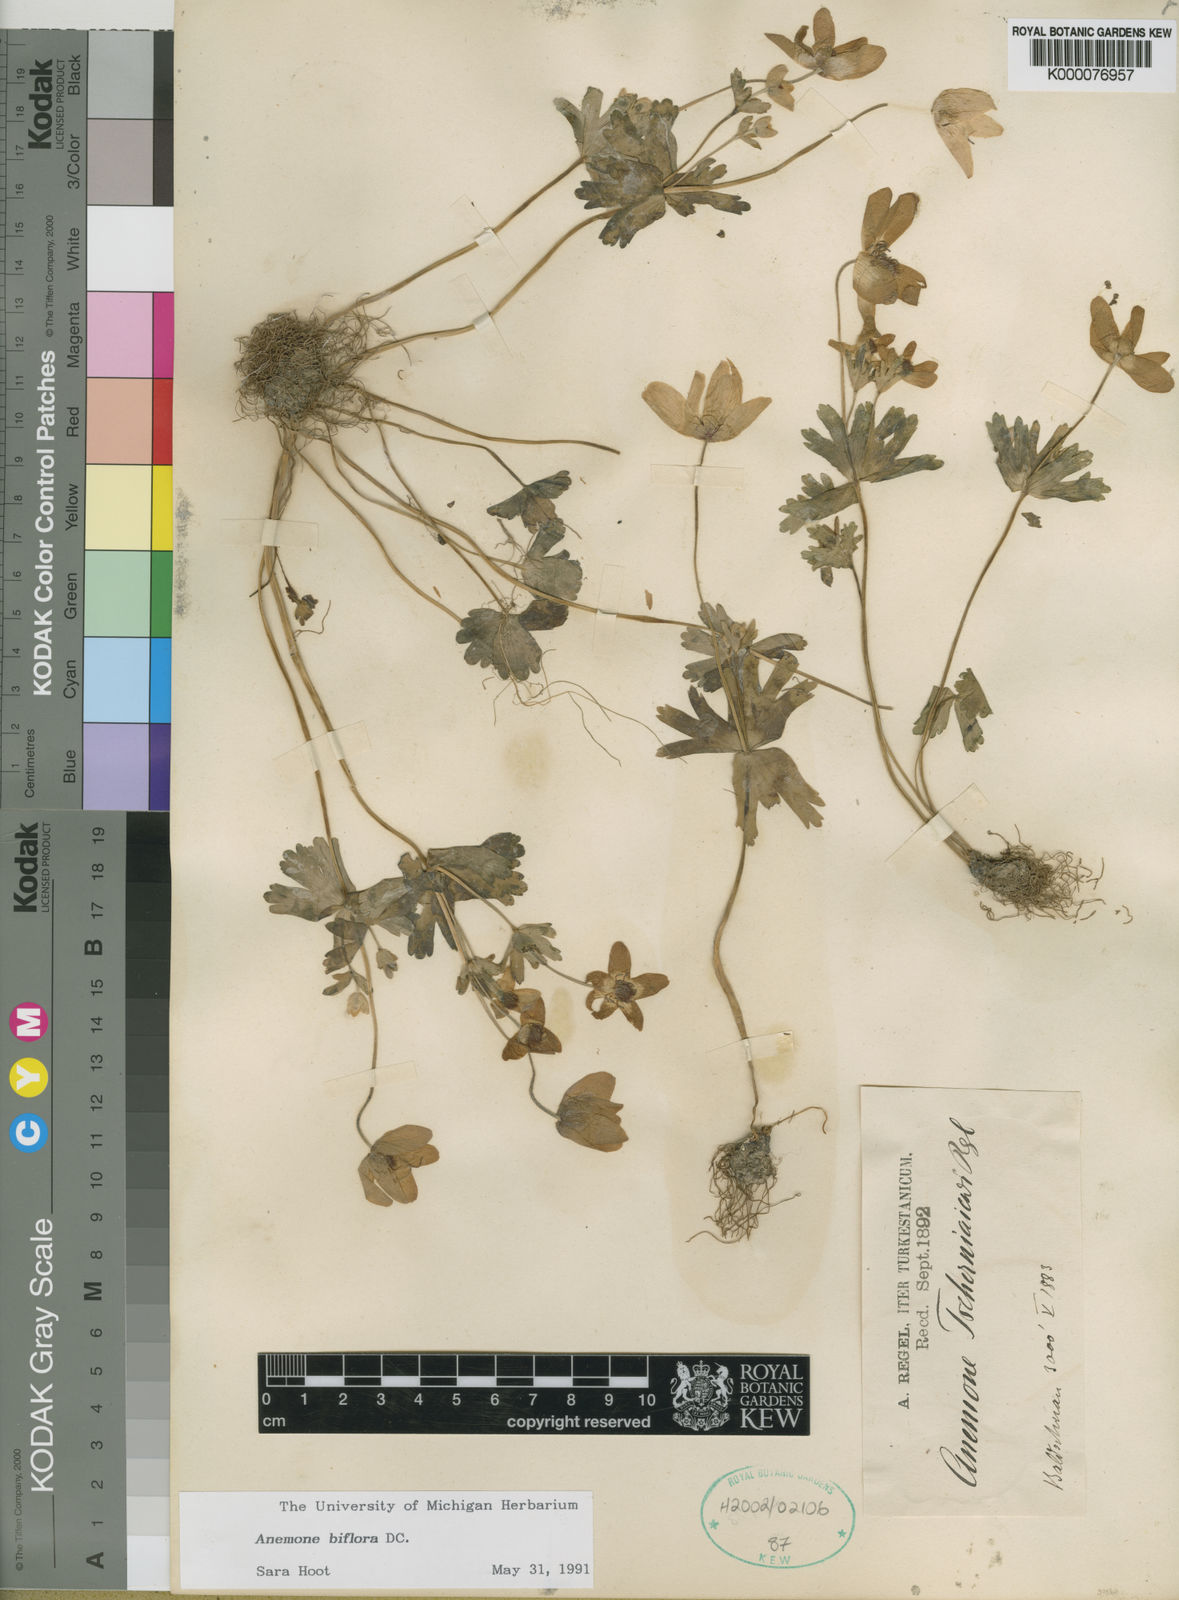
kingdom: Plantae
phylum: Tracheophyta
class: Magnoliopsida
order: Ranunculales
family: Ranunculaceae
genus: Anemone
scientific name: Anemone biflora
